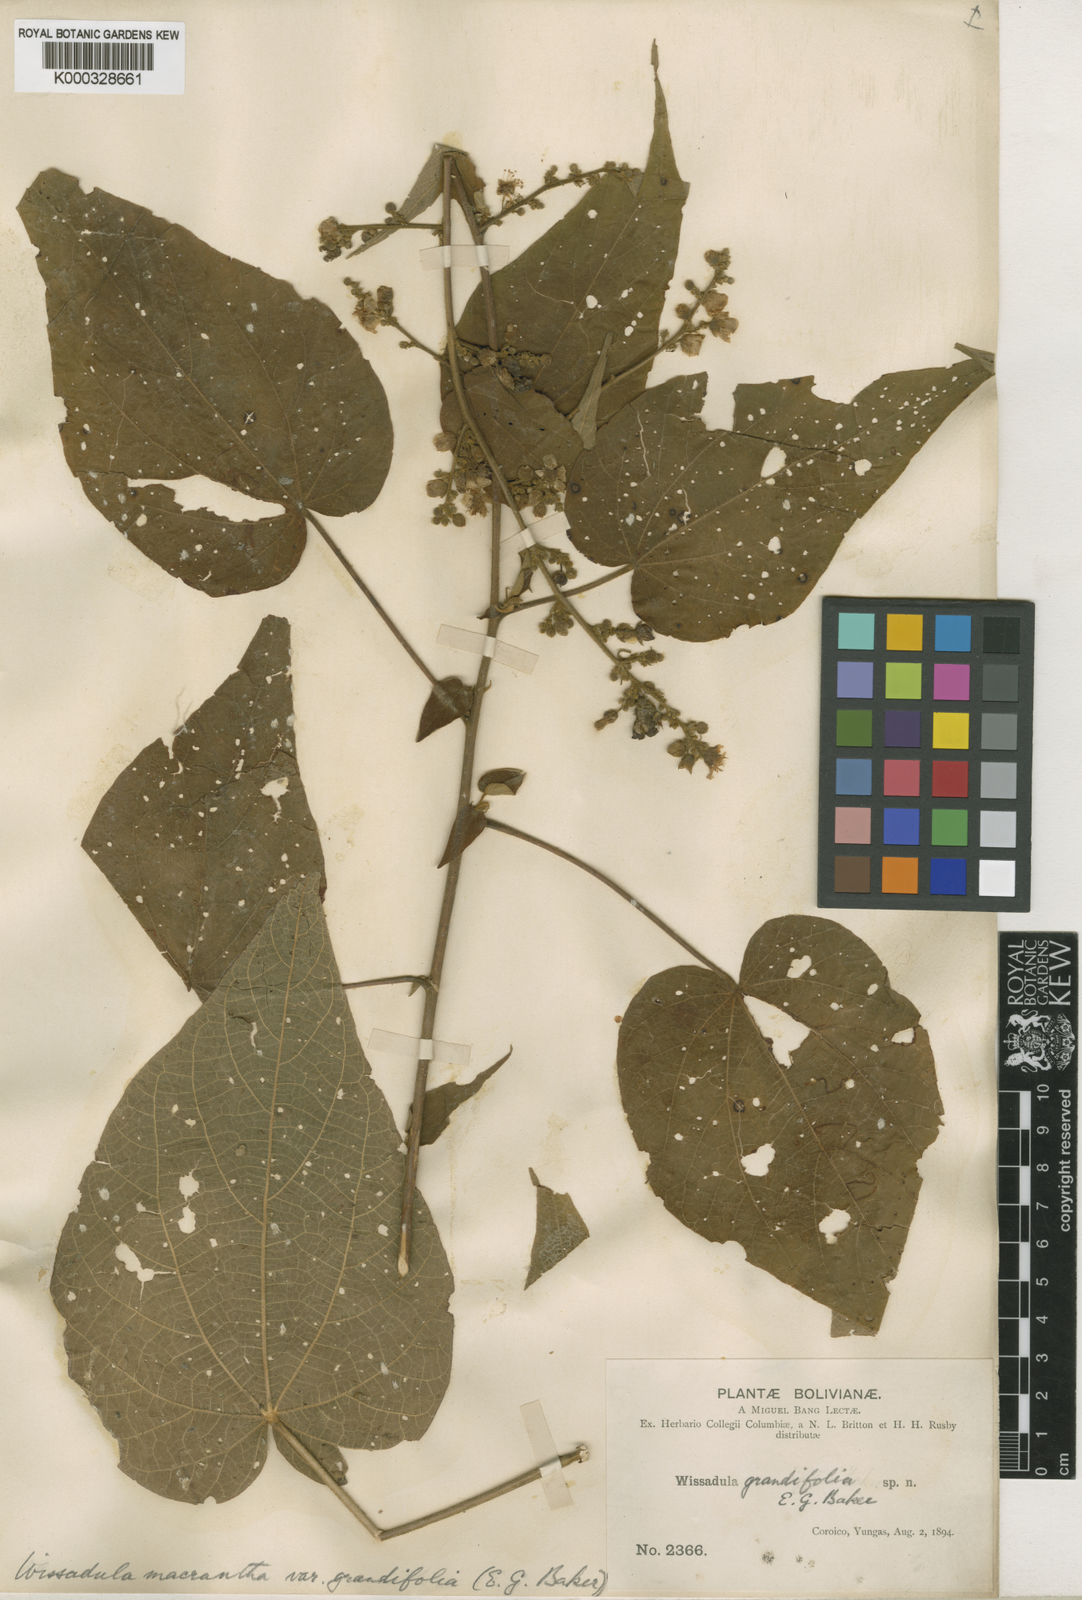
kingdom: Plantae
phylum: Tracheophyta
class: Magnoliopsida
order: Malvales
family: Malvaceae
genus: Wissadula
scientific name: Wissadula
